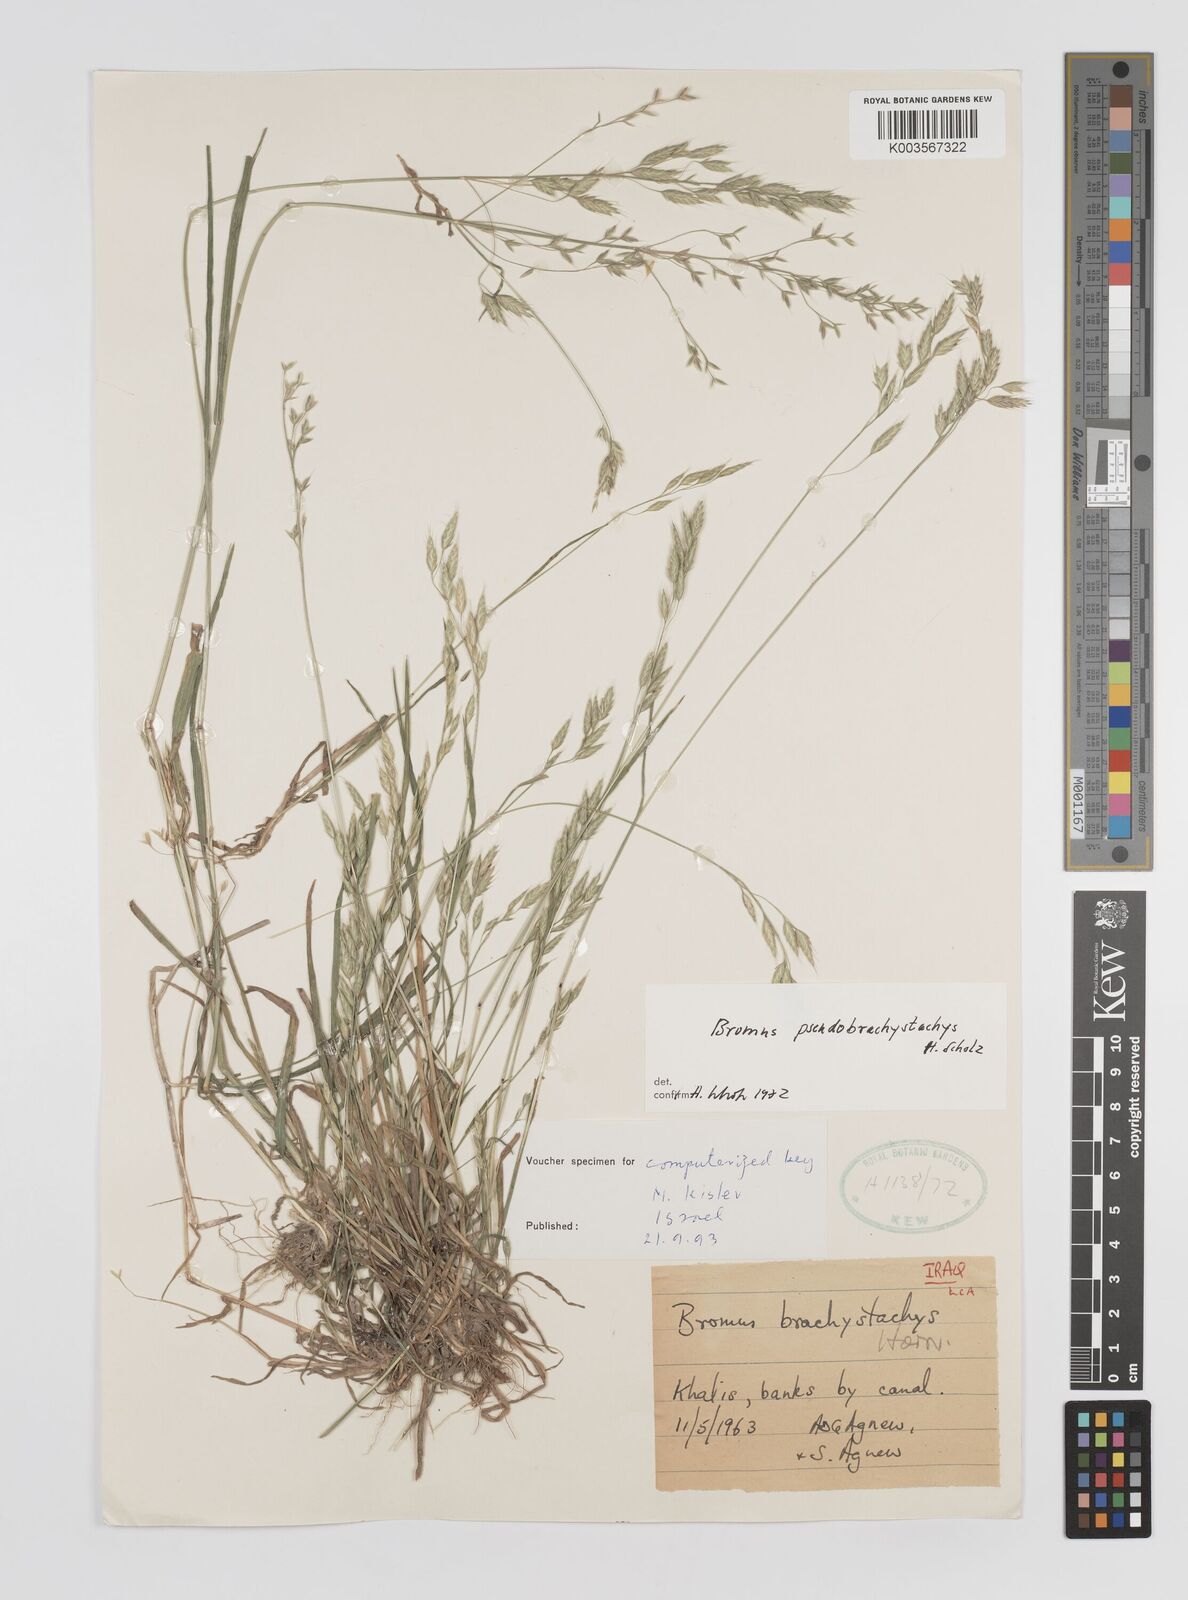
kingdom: Plantae
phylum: Tracheophyta
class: Liliopsida
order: Poales
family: Poaceae
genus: Bromus
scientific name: Bromus pseudobrachystachys
